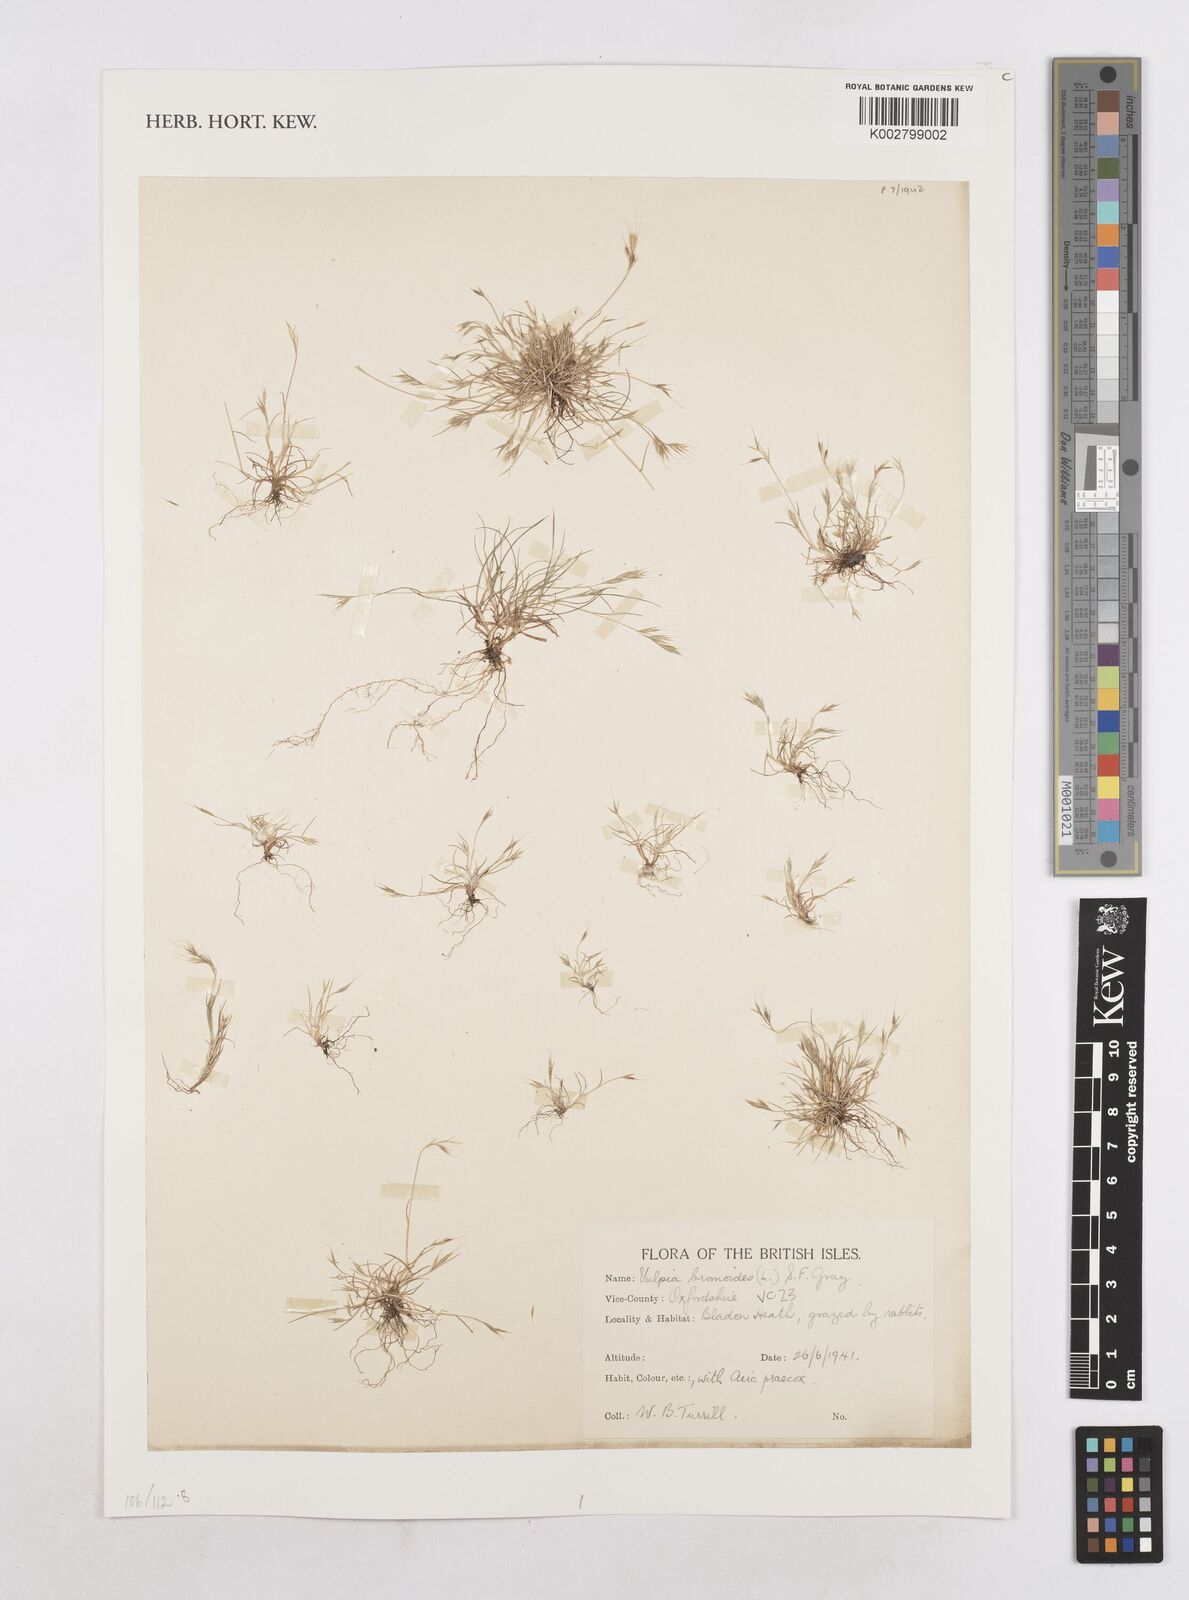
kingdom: Plantae
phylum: Tracheophyta
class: Liliopsida
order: Poales
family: Poaceae
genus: Festuca
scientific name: Festuca bromoides
